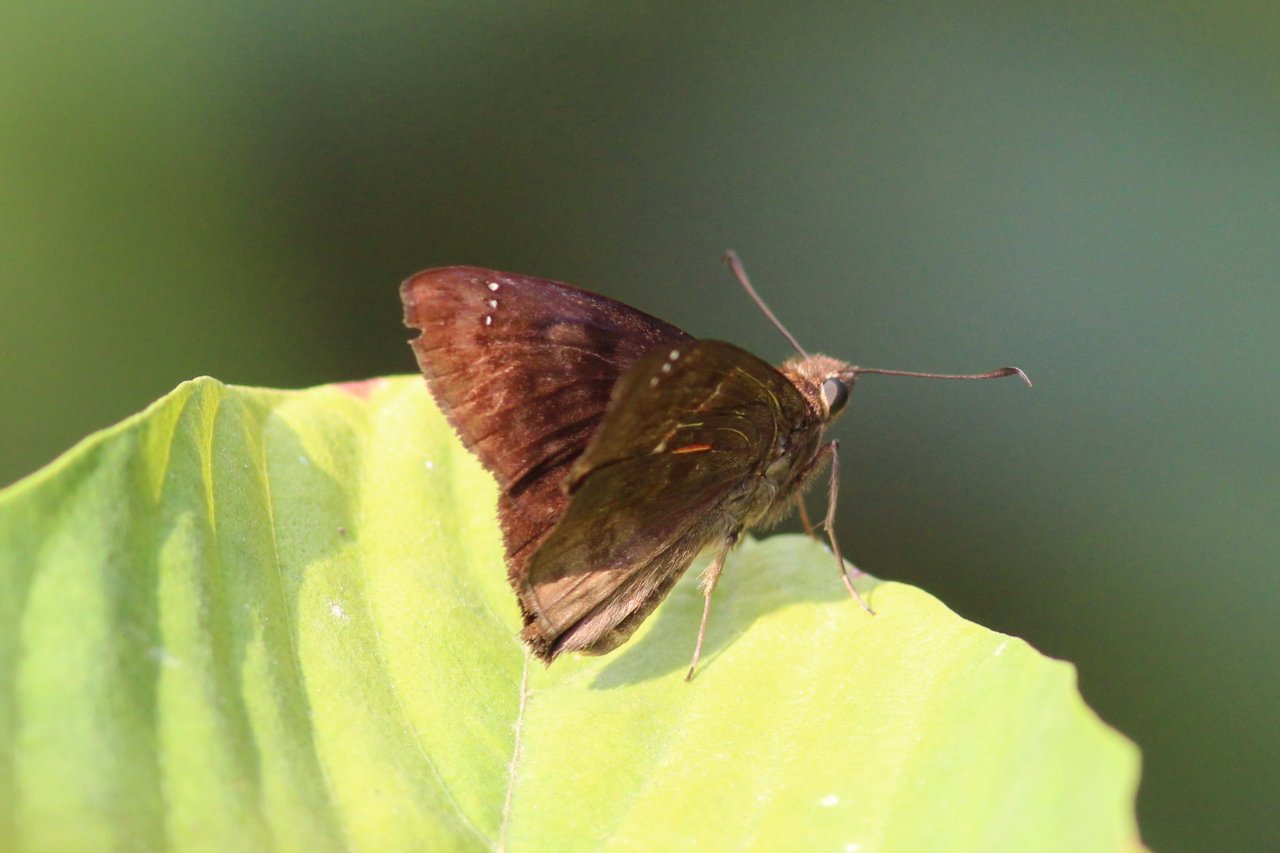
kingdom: Animalia
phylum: Arthropoda
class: Insecta
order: Lepidoptera
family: Hesperiidae
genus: Nisoniades
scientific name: Nisoniades rubescens
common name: Purplish-black Skipper
